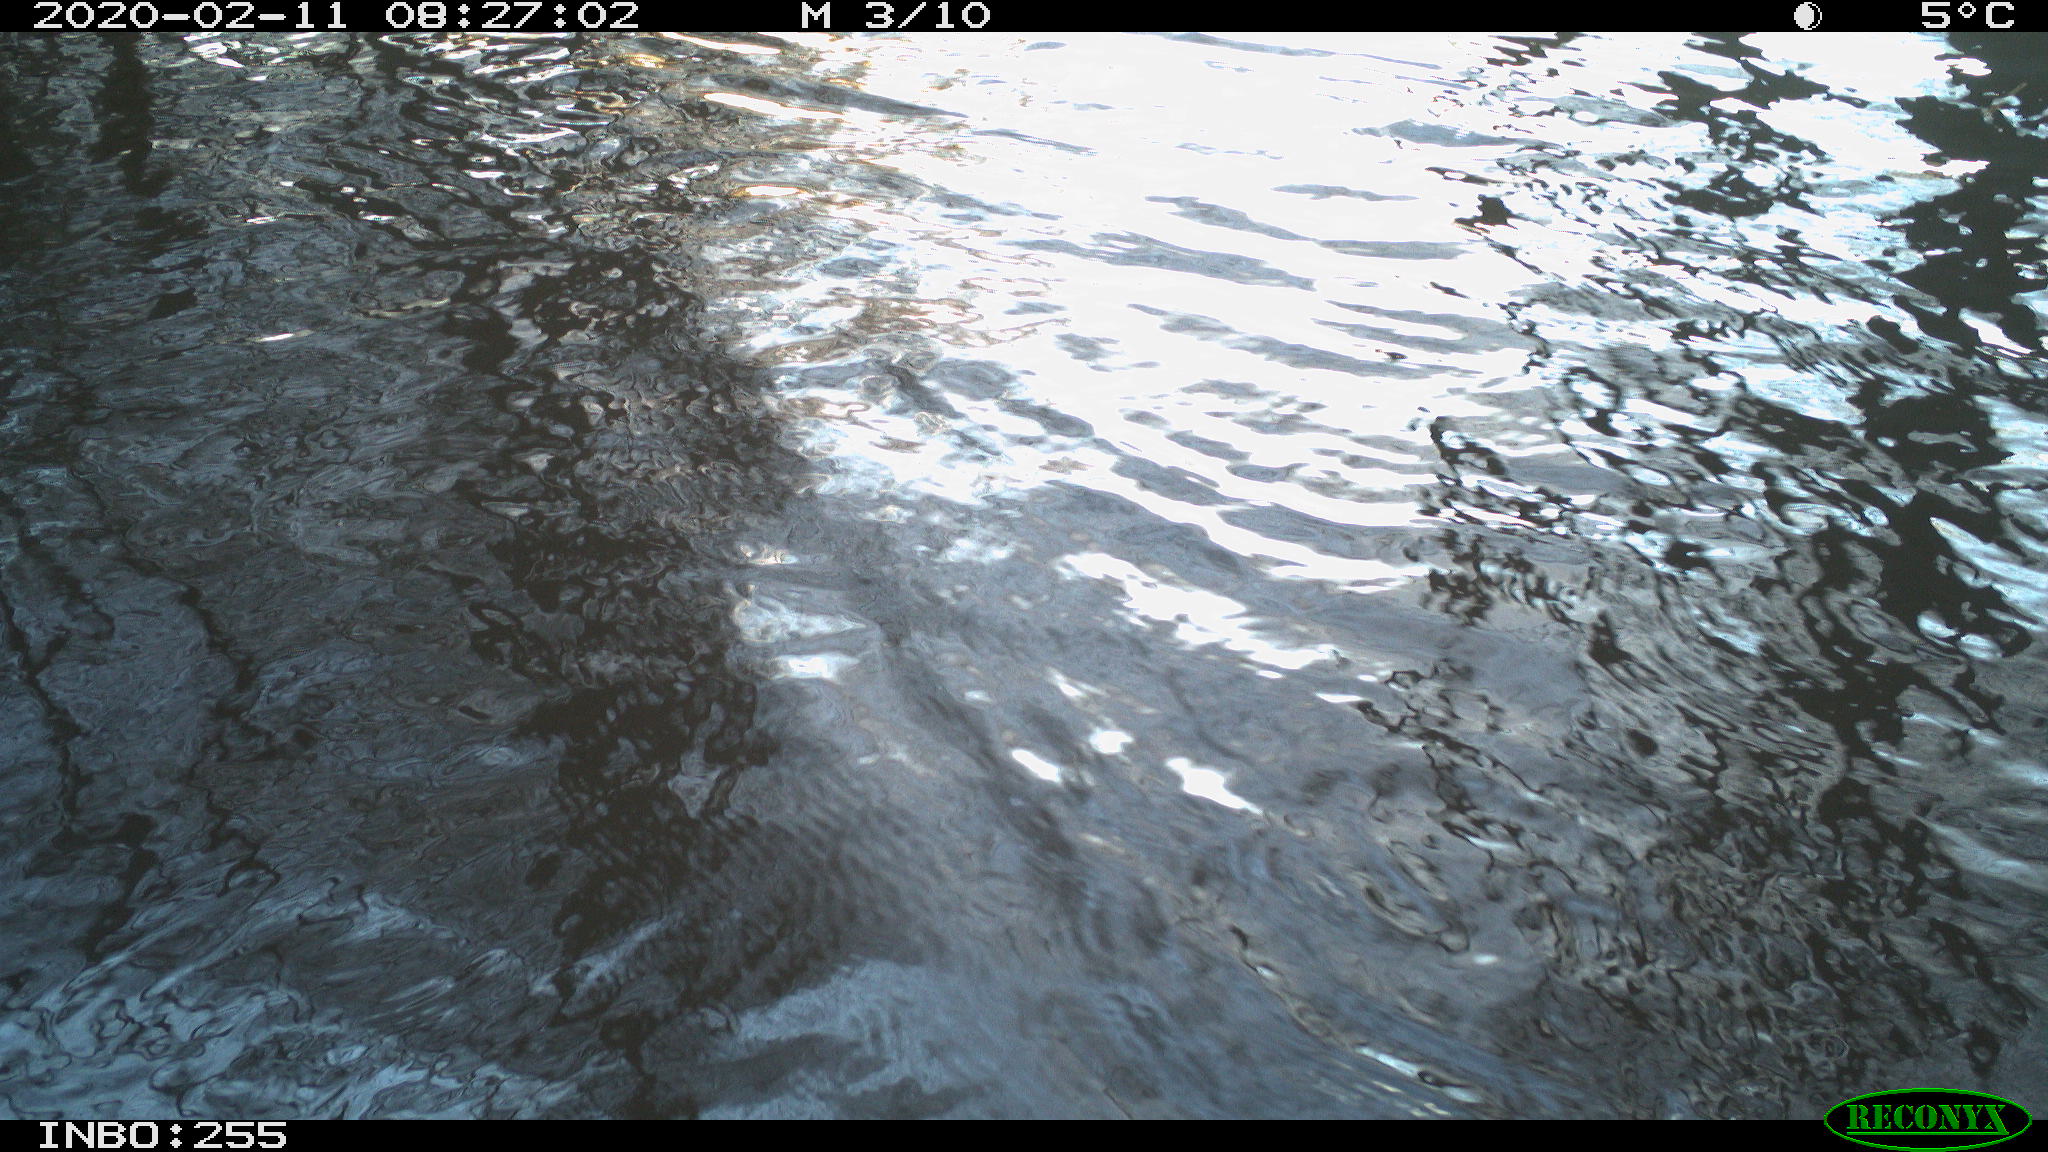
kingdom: Animalia
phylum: Chordata
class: Aves
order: Gruiformes
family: Rallidae
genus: Fulica
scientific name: Fulica atra
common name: Eurasian coot
